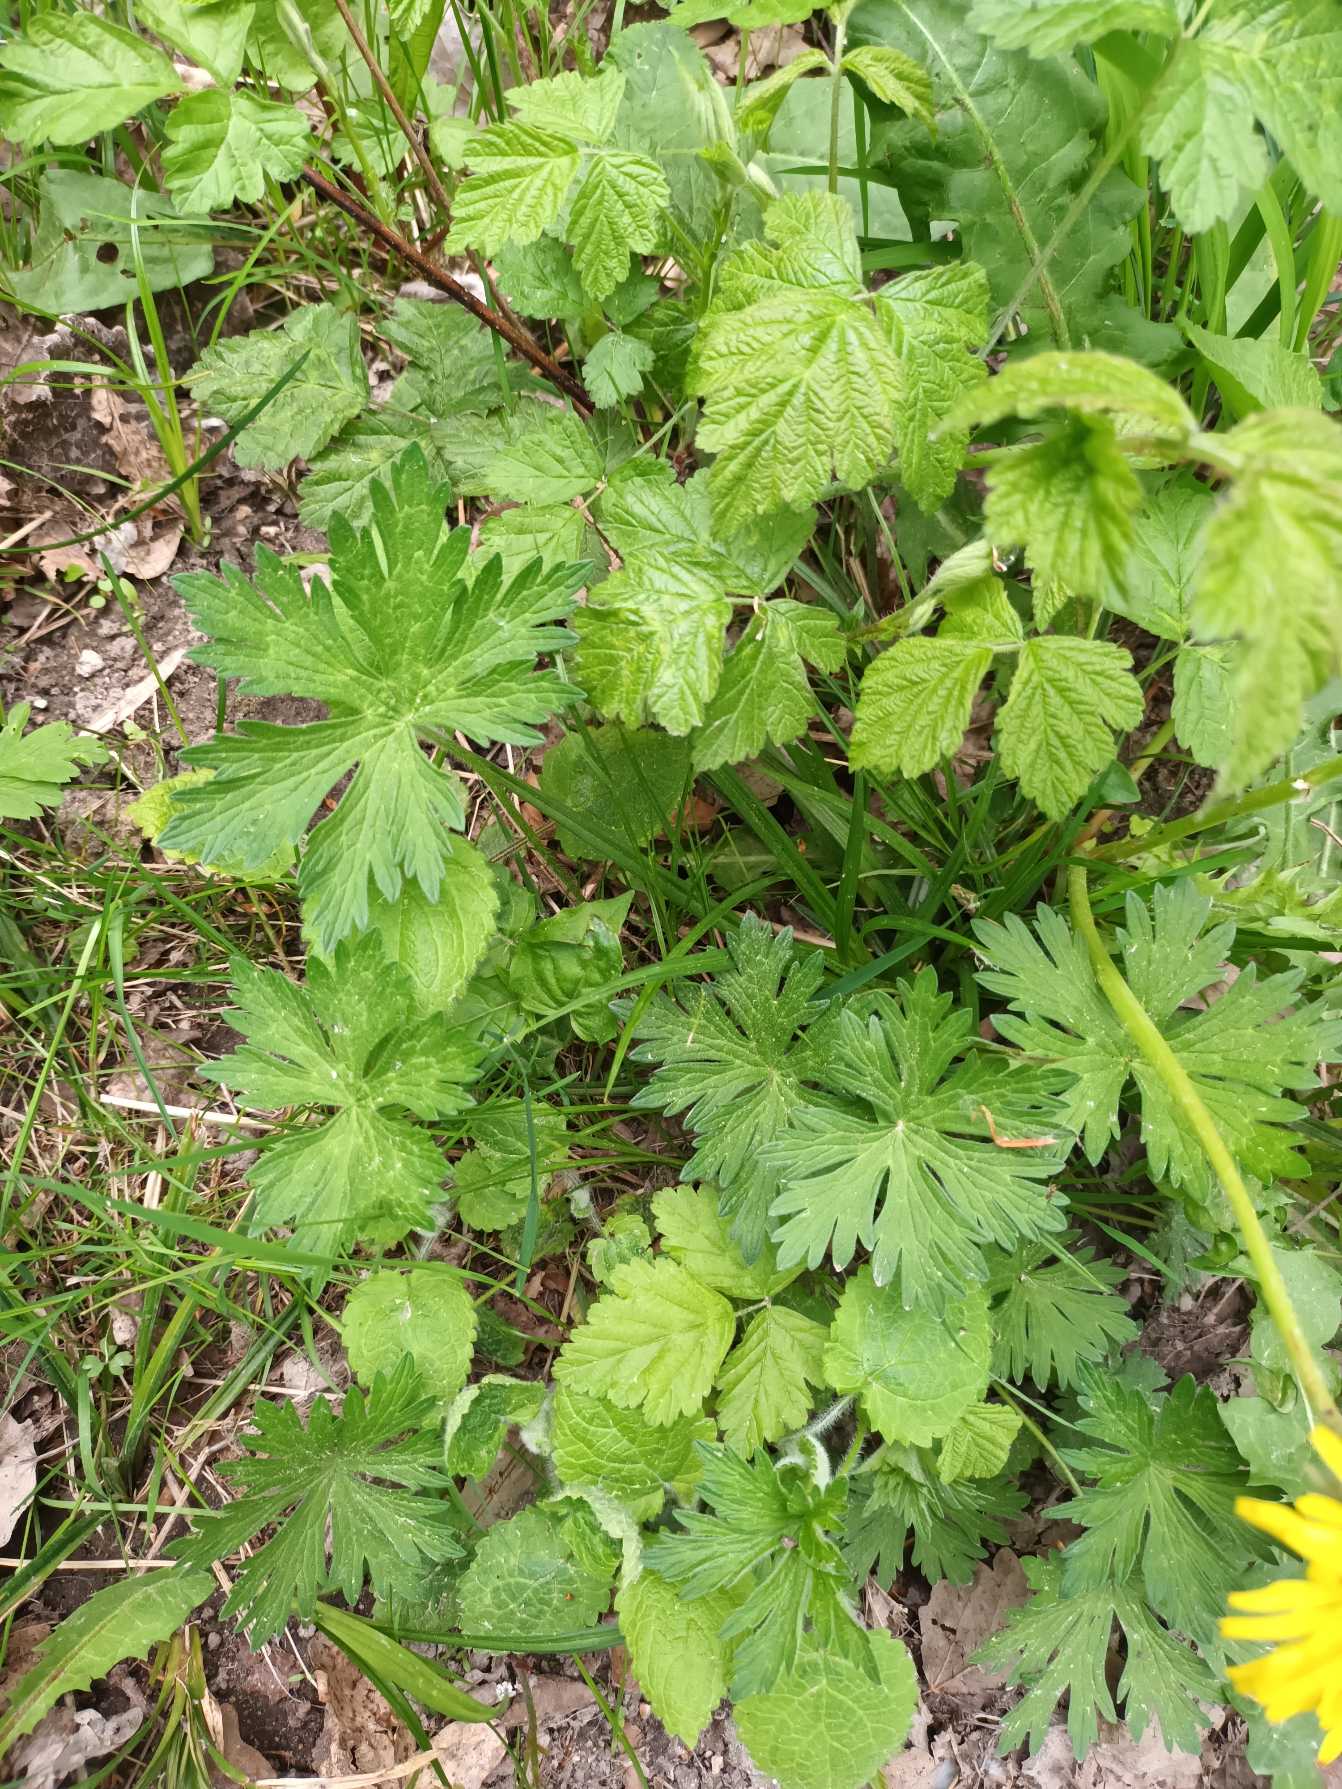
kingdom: Plantae
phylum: Tracheophyta
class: Magnoliopsida
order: Ranunculales
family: Ranunculaceae
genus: Ranunculus
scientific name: Ranunculus acris
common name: Bidende ranunkel
